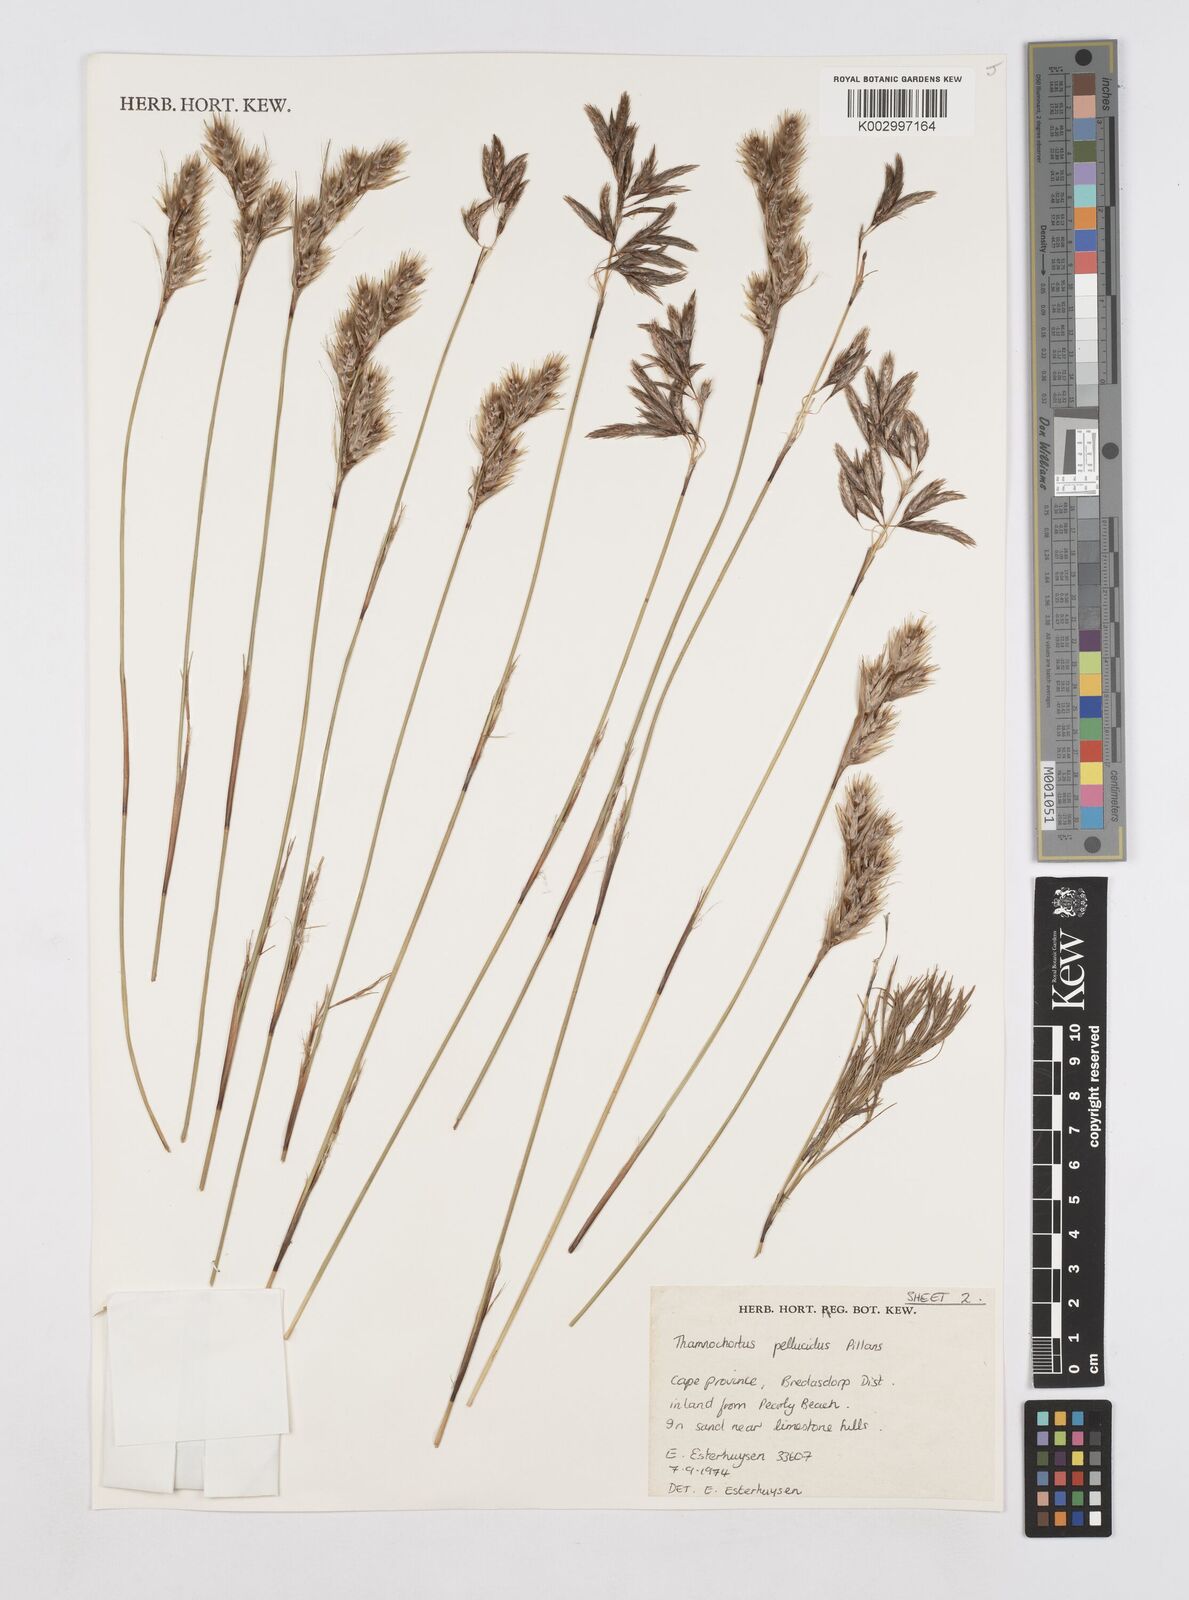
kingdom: Plantae
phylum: Tracheophyta
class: Liliopsida
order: Poales
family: Restionaceae
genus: Thamnochortus
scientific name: Thamnochortus pellucidus
